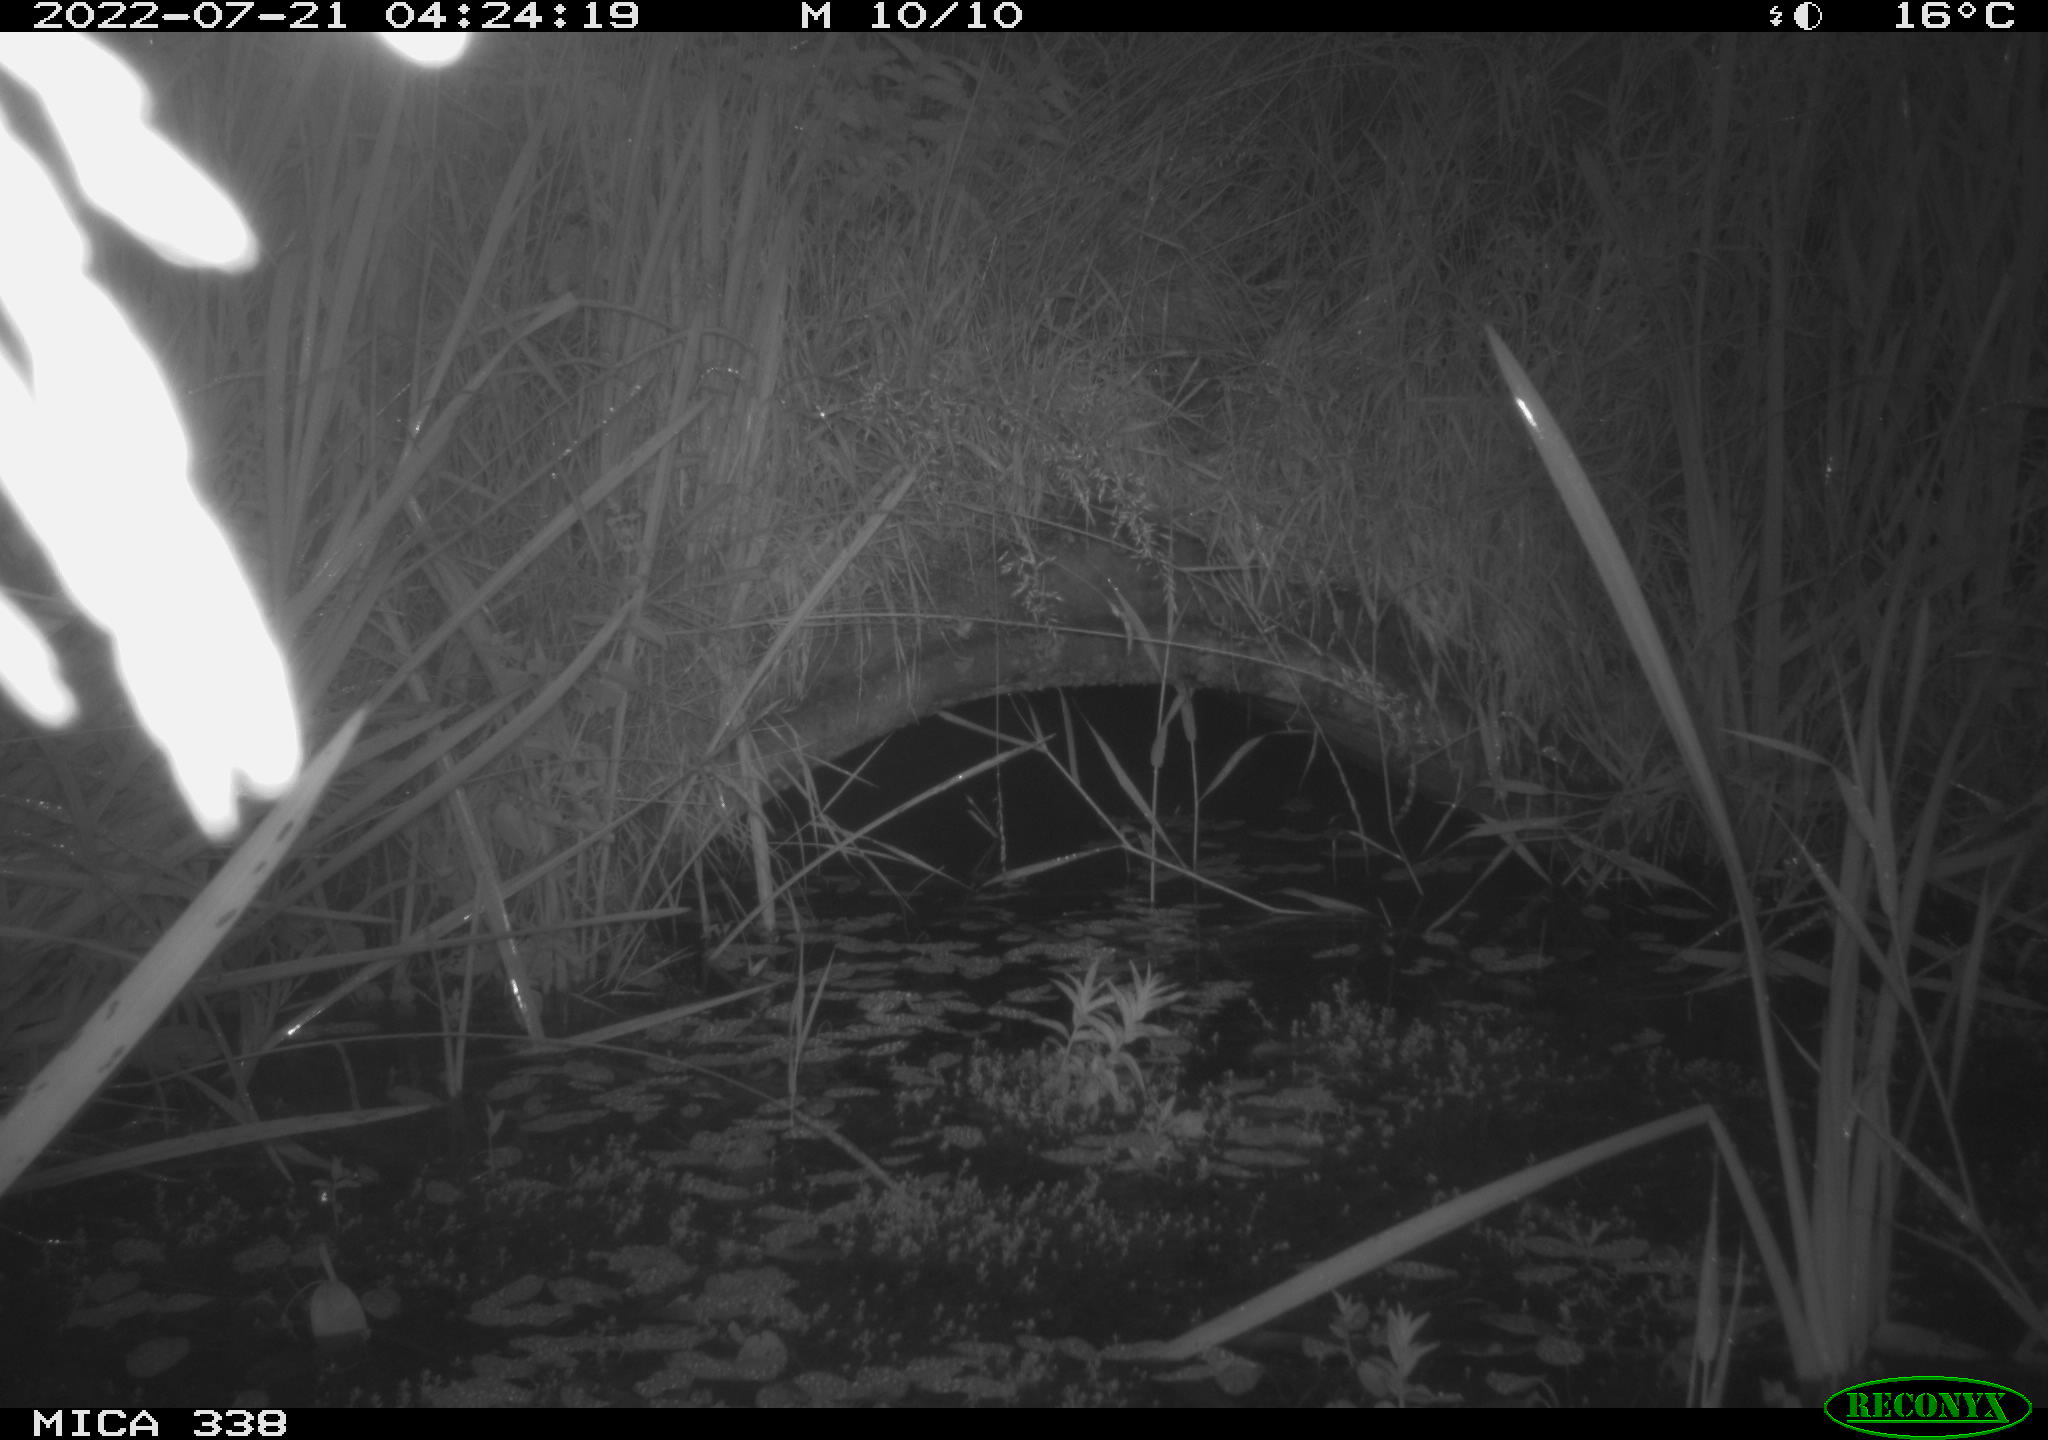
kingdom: Animalia
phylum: Chordata
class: Aves
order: Passeriformes
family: Acrocephalidae
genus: Acrocephalus
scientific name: Acrocephalus schoenobaenus
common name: Sedge warbler
